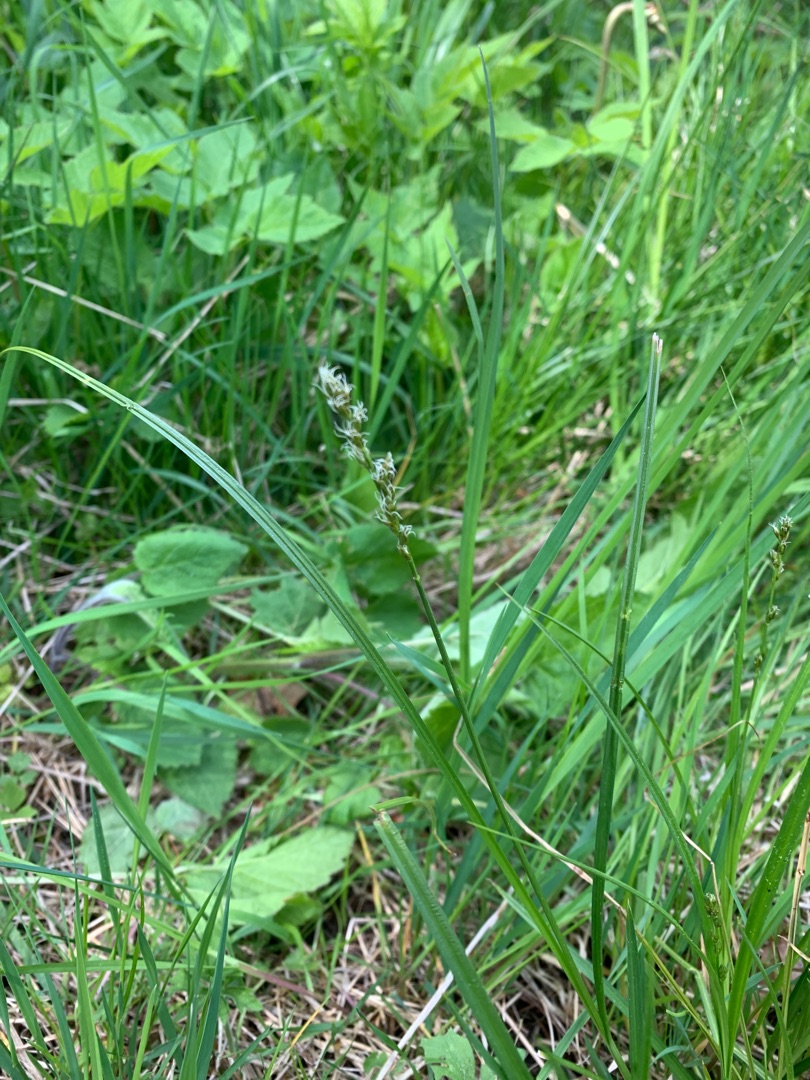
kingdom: Plantae
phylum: Tracheophyta
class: Liliopsida
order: Poales
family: Cyperaceae
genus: Carex
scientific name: Carex divulsa
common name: Mellembrudt star
